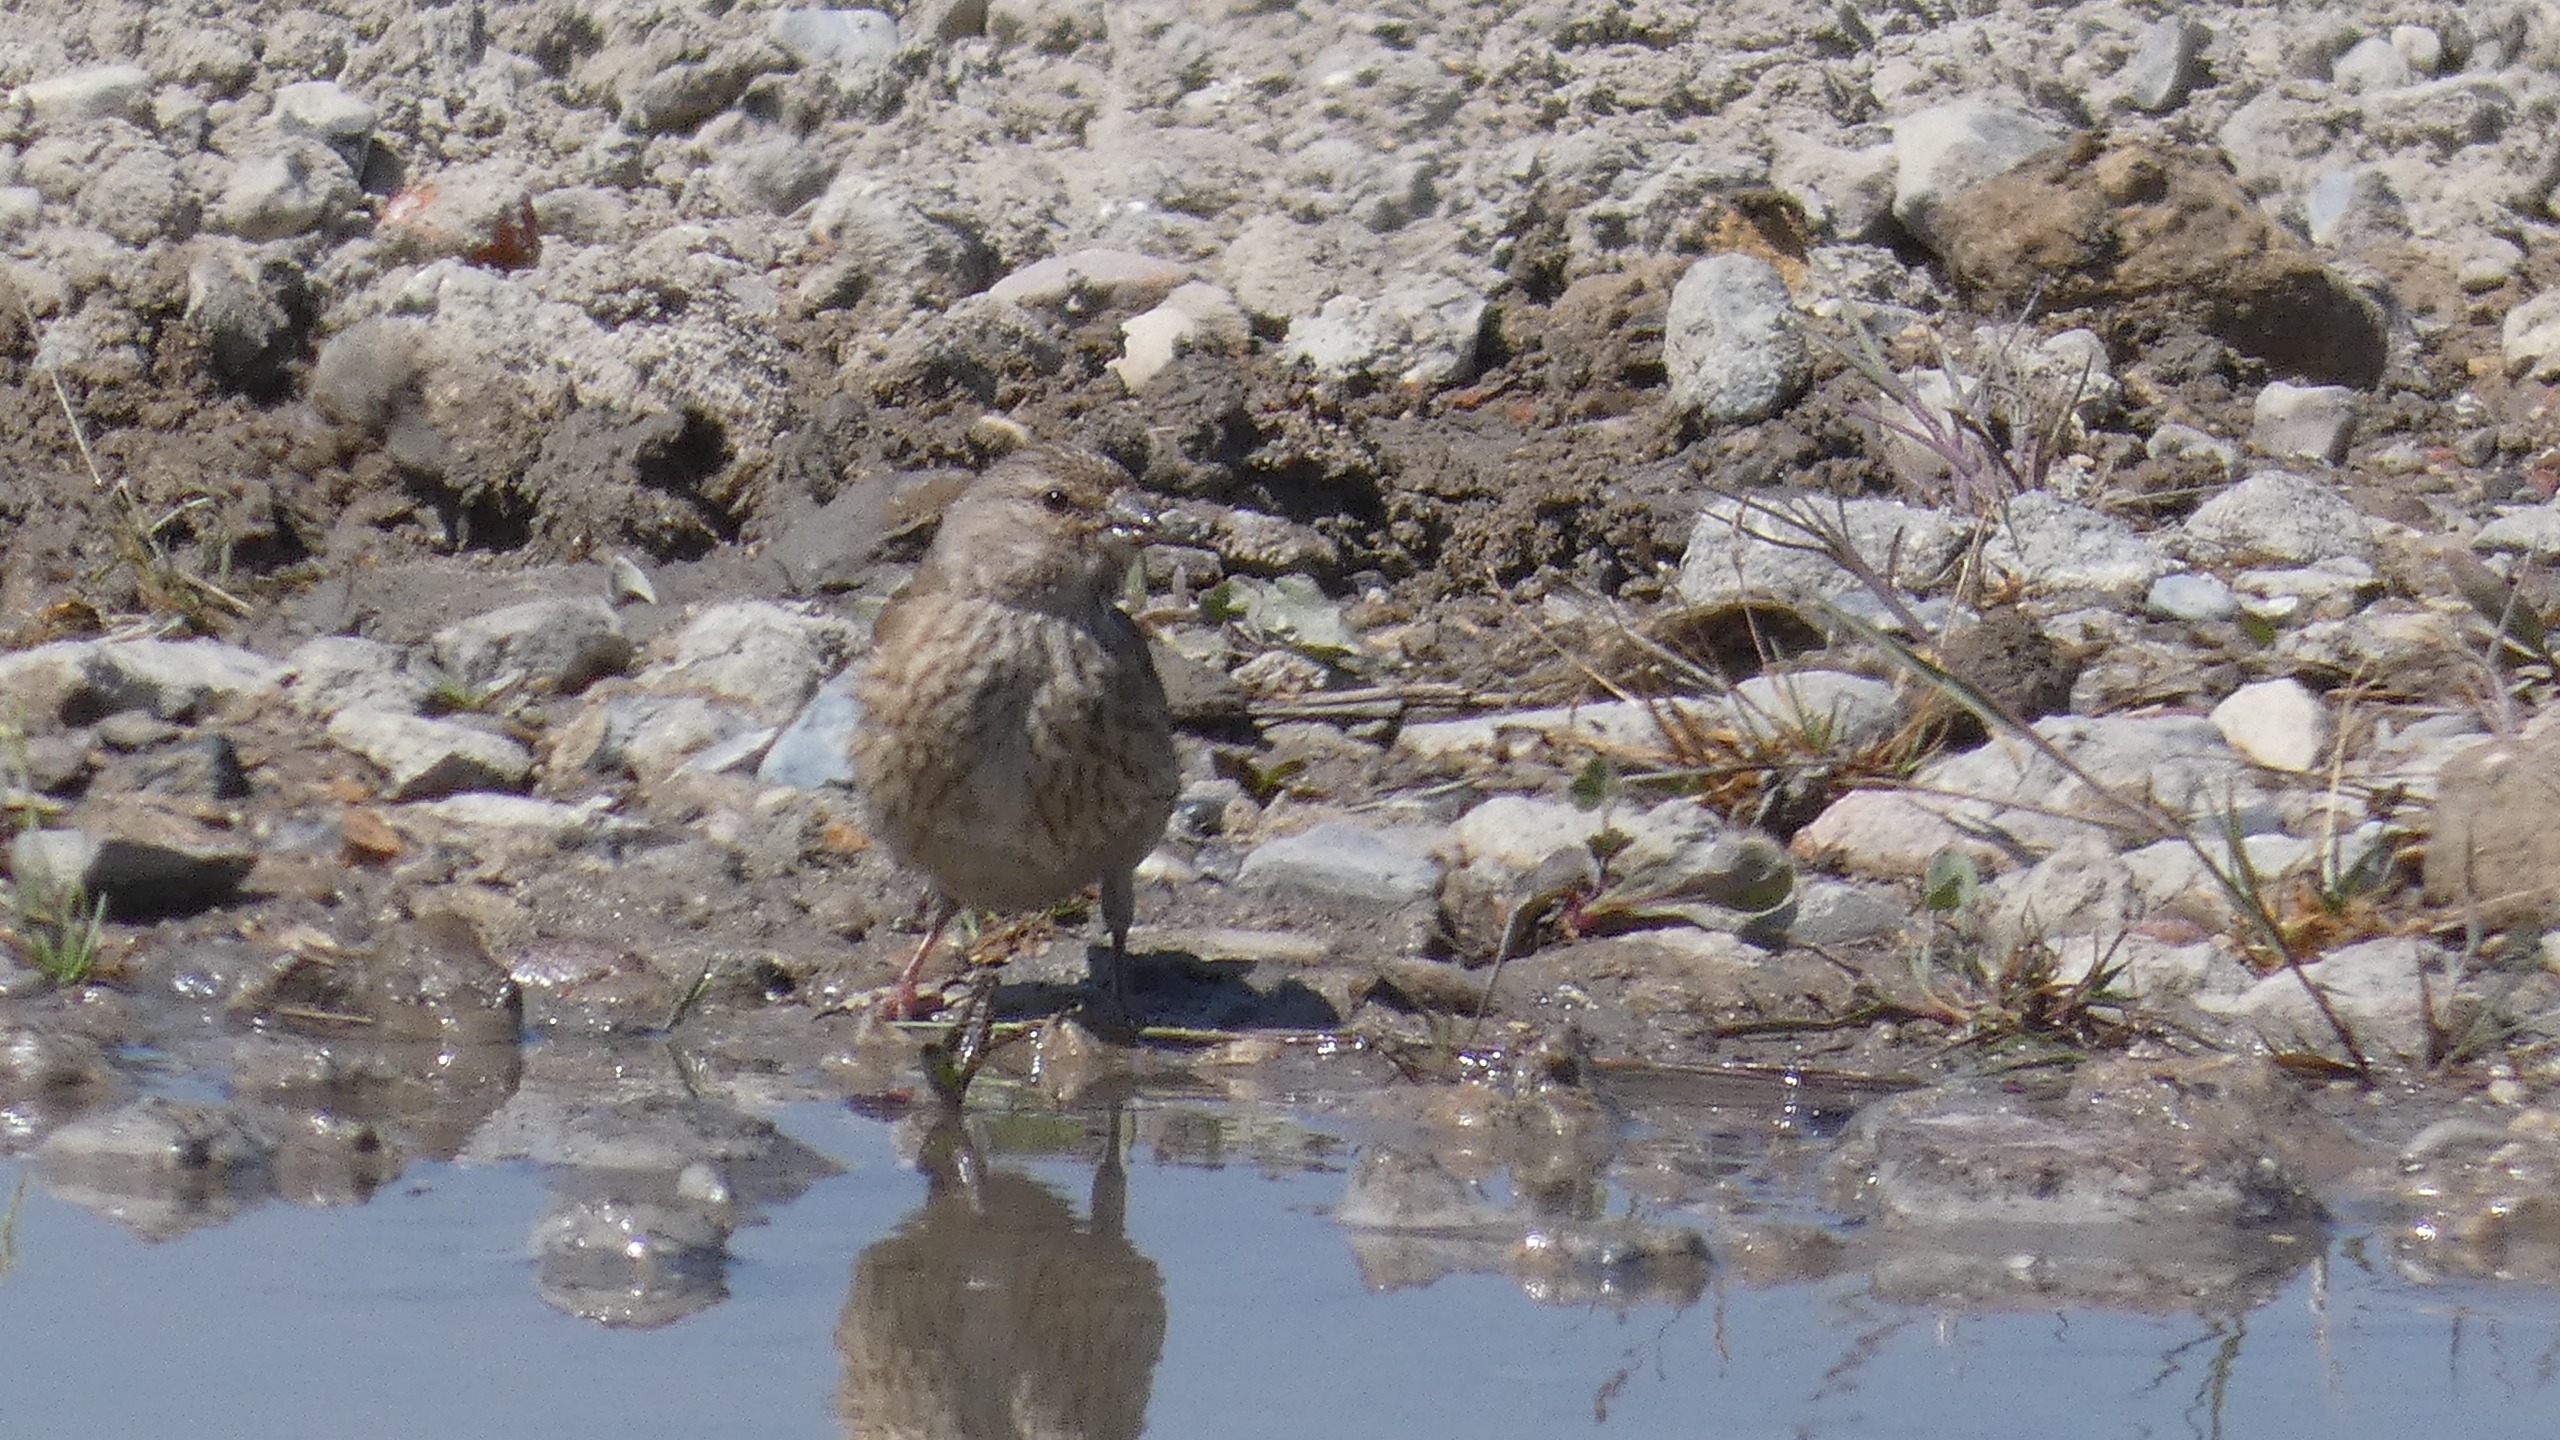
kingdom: Animalia
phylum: Chordata
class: Aves
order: Passeriformes
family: Fringillidae
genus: Linaria
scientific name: Linaria cannabina
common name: Tornirisk
